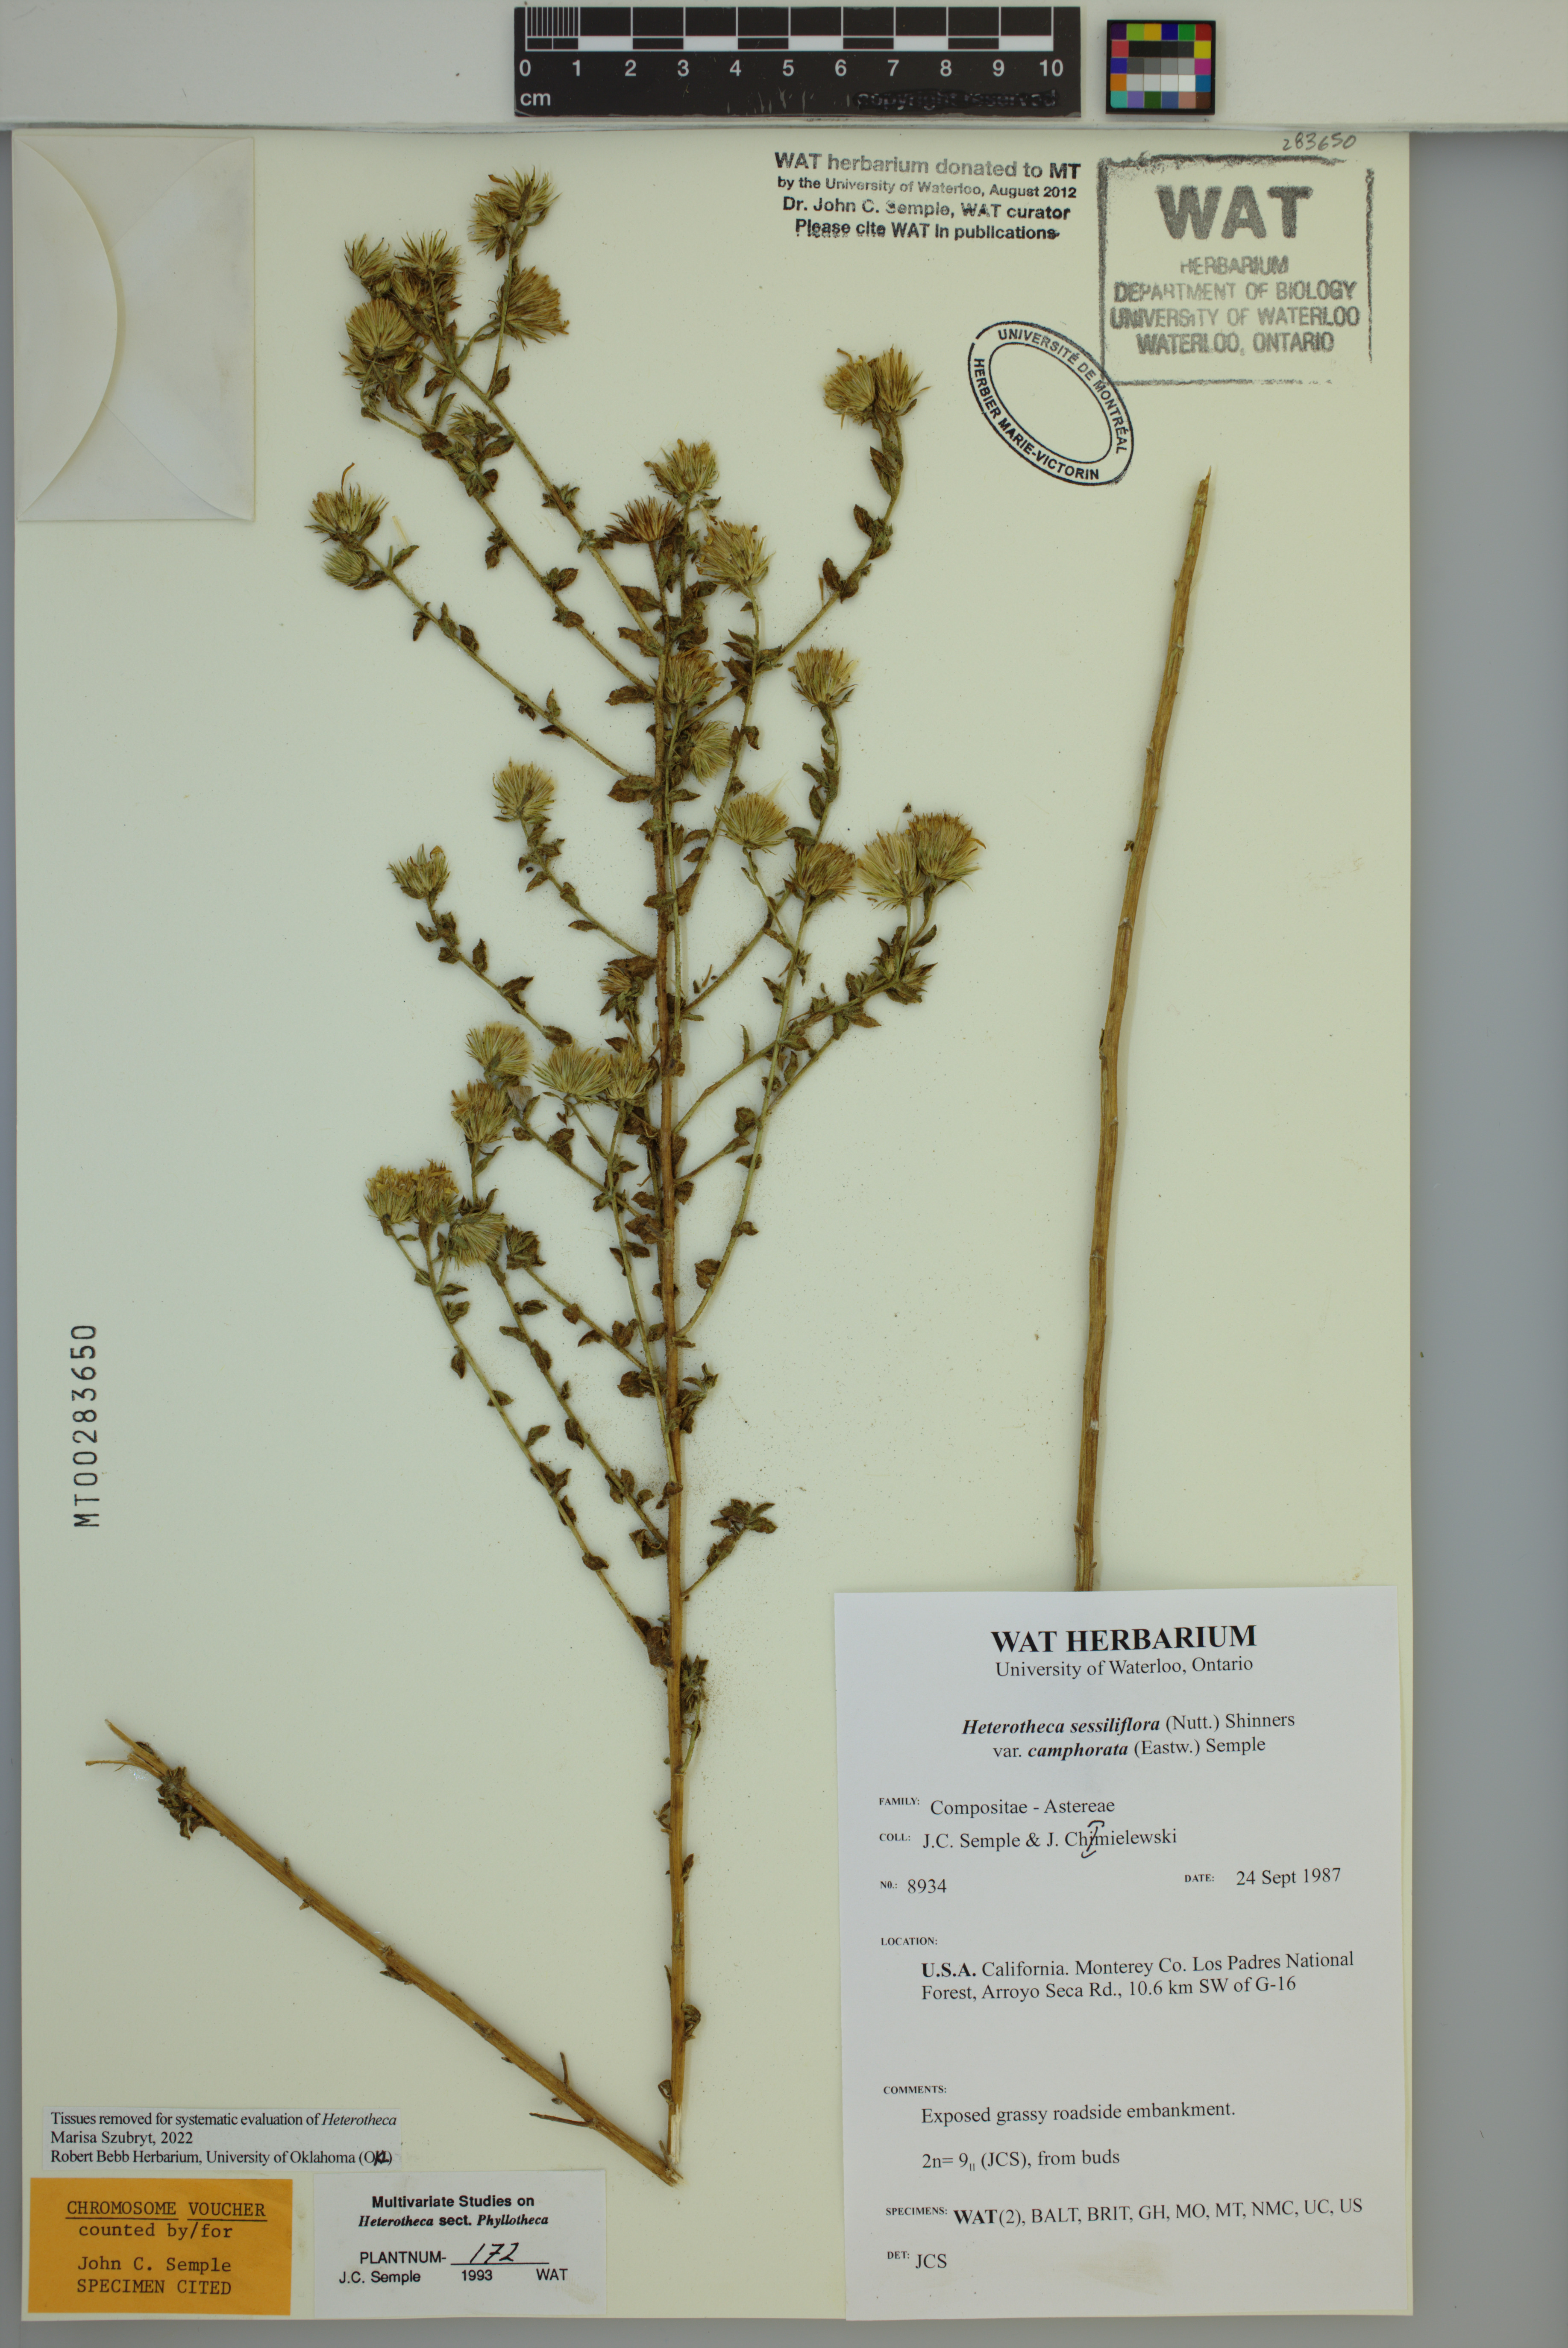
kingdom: Plantae
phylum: Tracheophyta
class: Magnoliopsida
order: Asterales
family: Asteraceae
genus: Heterotheca
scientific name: Heterotheca camphorata
